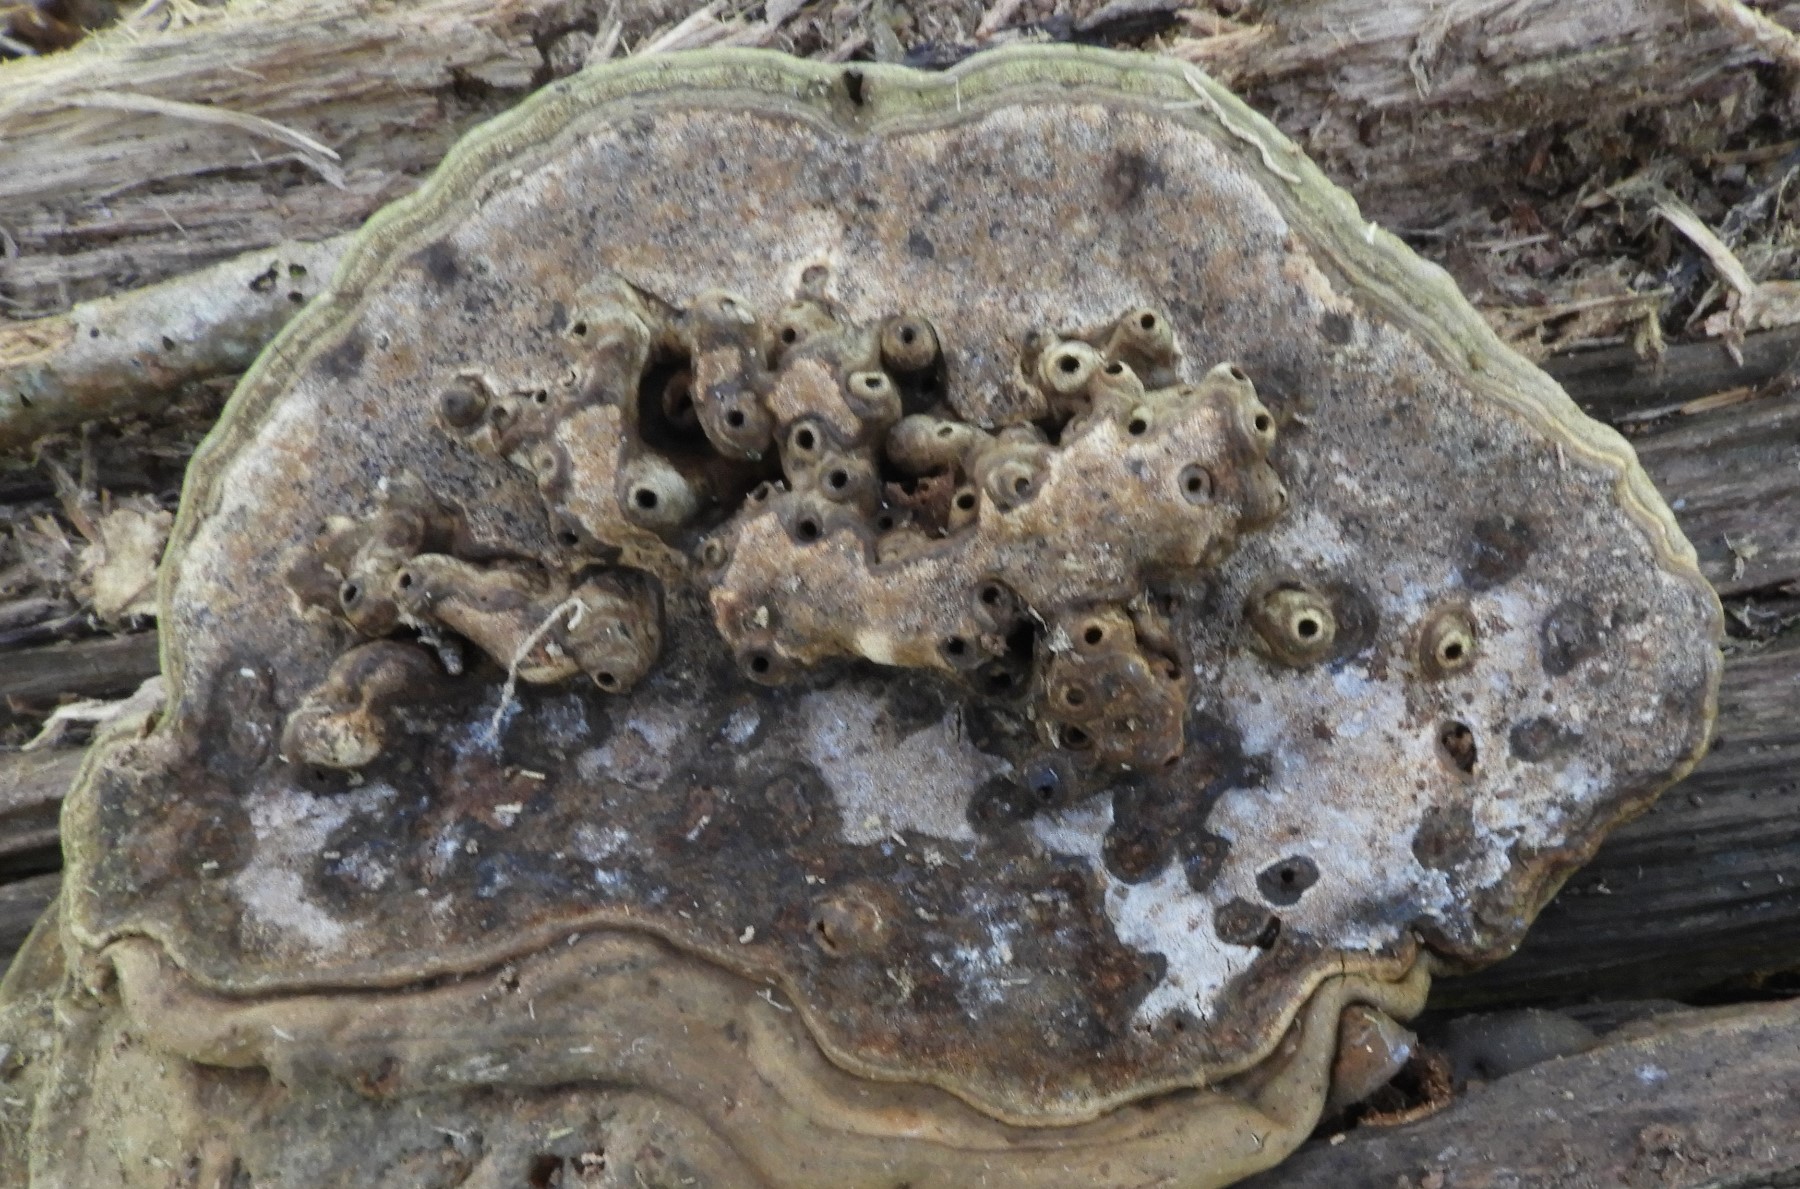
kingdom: Fungi
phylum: Basidiomycota
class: Agaricomycetes
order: Polyporales
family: Polyporaceae
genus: Ganoderma
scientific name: Ganoderma applanatum
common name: flad lakporesvamp
